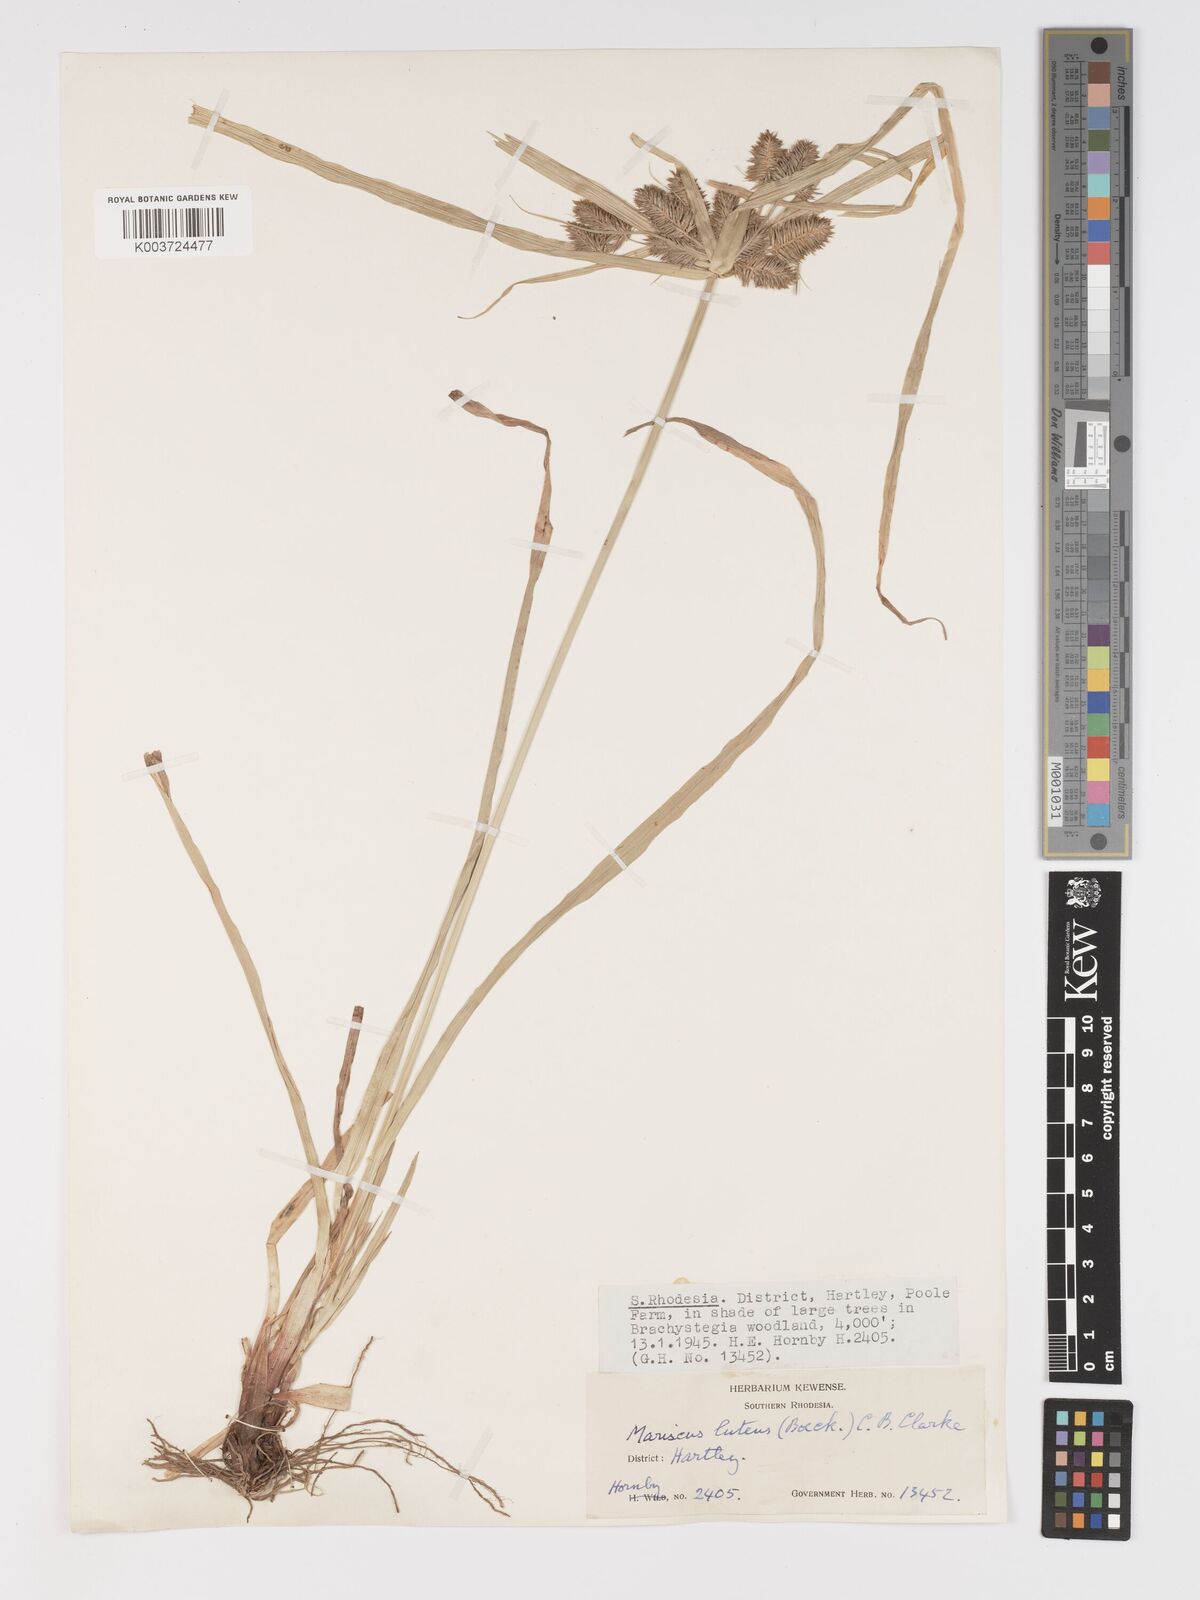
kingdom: Plantae
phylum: Tracheophyta
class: Liliopsida
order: Poales
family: Cyperaceae
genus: Cyperus
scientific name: Cyperus luteus
